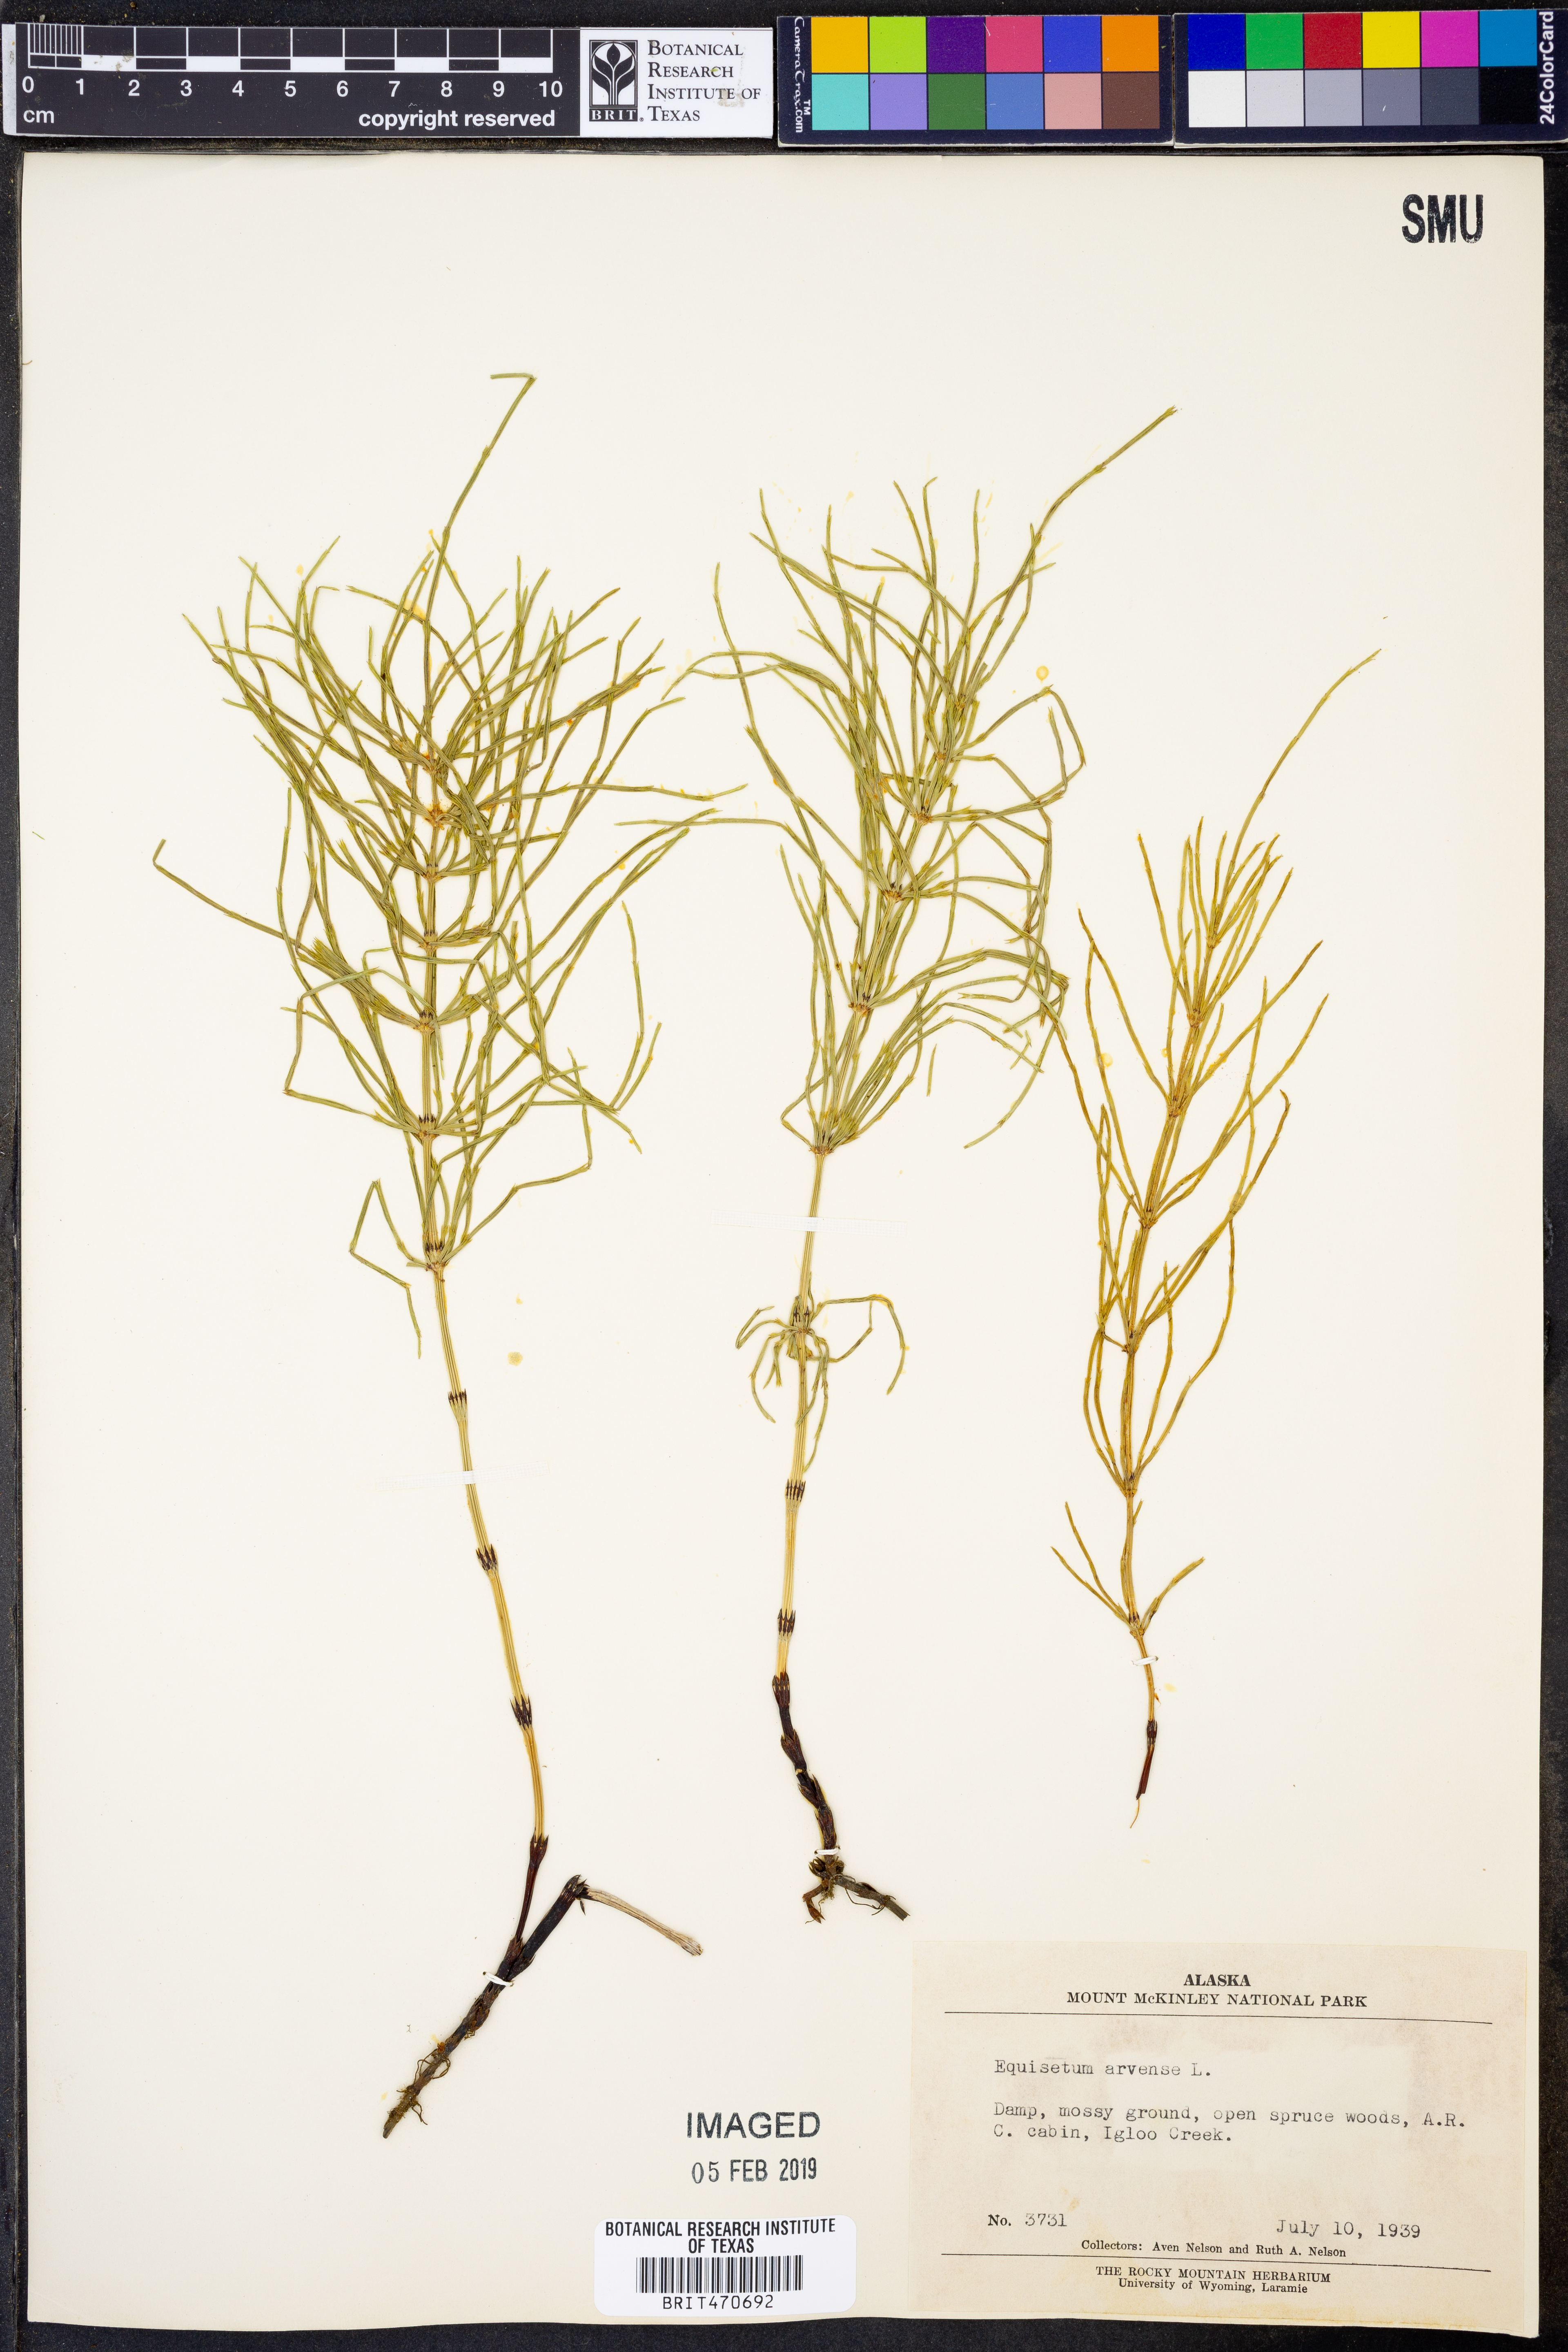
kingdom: Plantae
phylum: Tracheophyta
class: Polypodiopsida
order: Equisetales
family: Equisetaceae
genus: Equisetum
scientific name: Equisetum arvense
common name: Field horsetail
